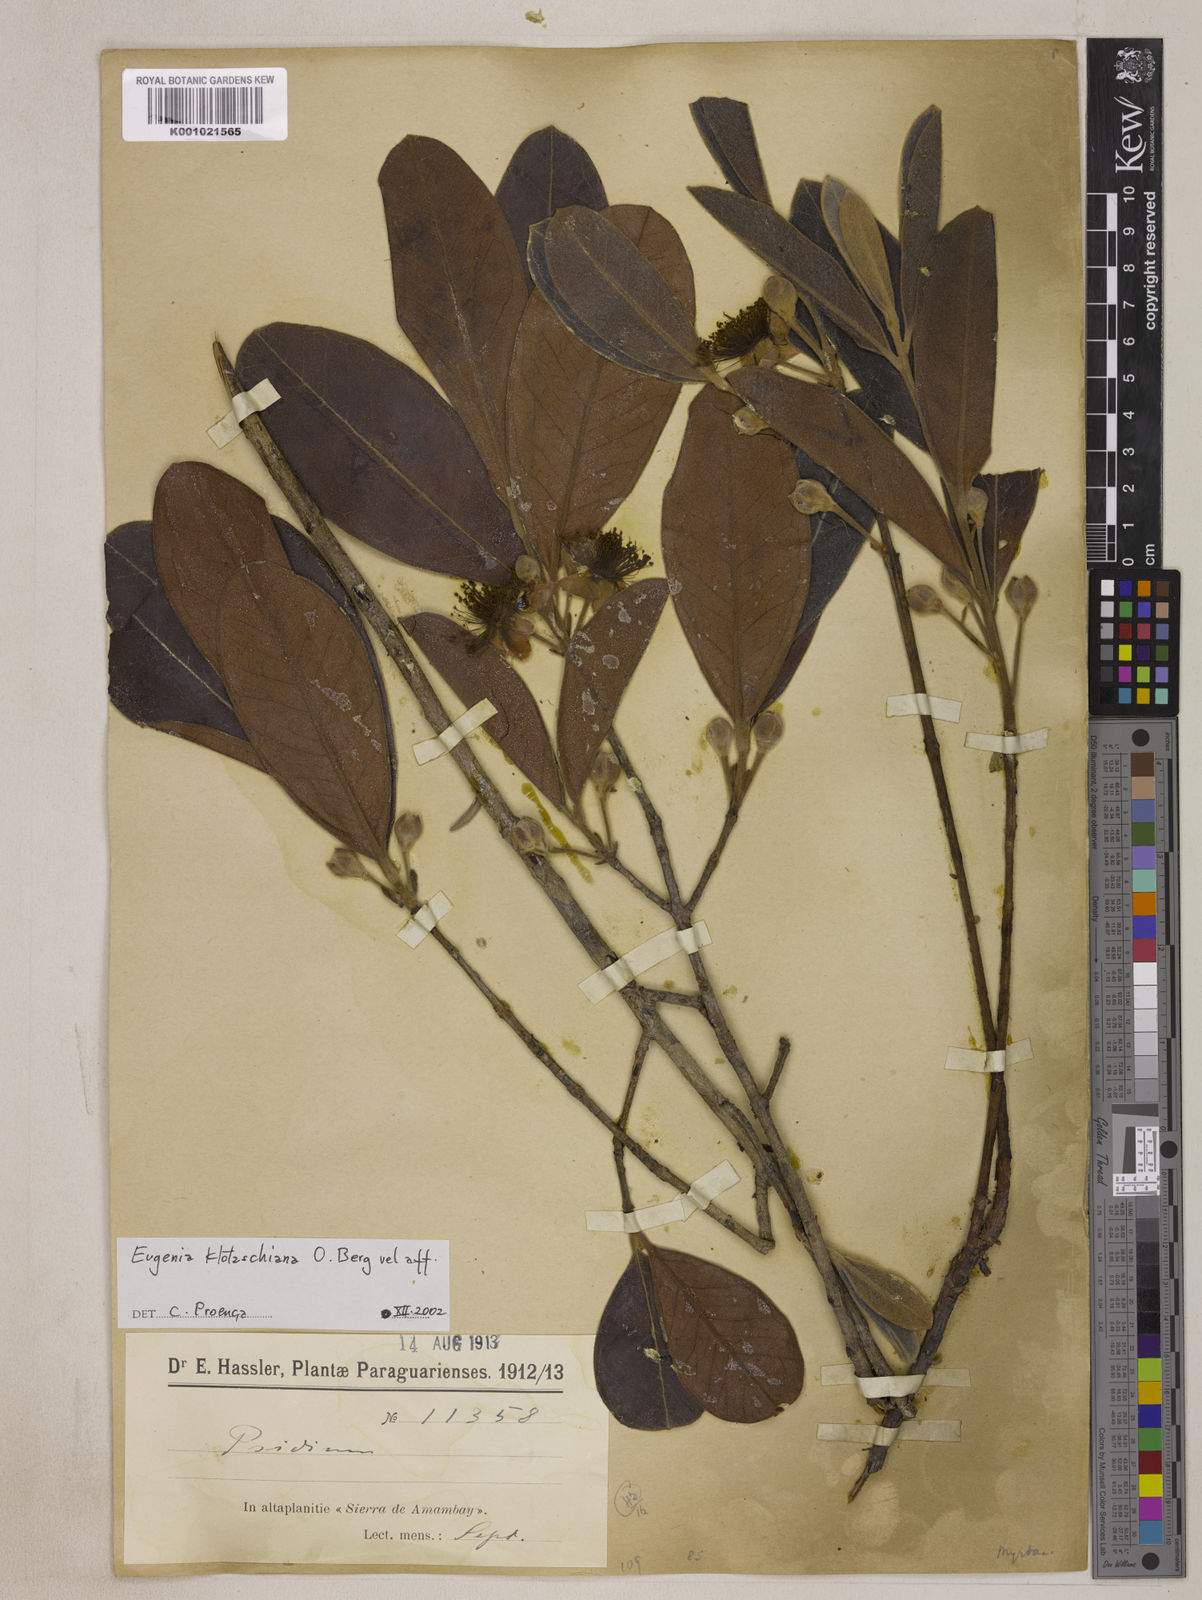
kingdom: Plantae
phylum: Tracheophyta
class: Magnoliopsida
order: Myrtales
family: Myrtaceae
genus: Eugenia
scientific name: Eugenia klotzschiana
